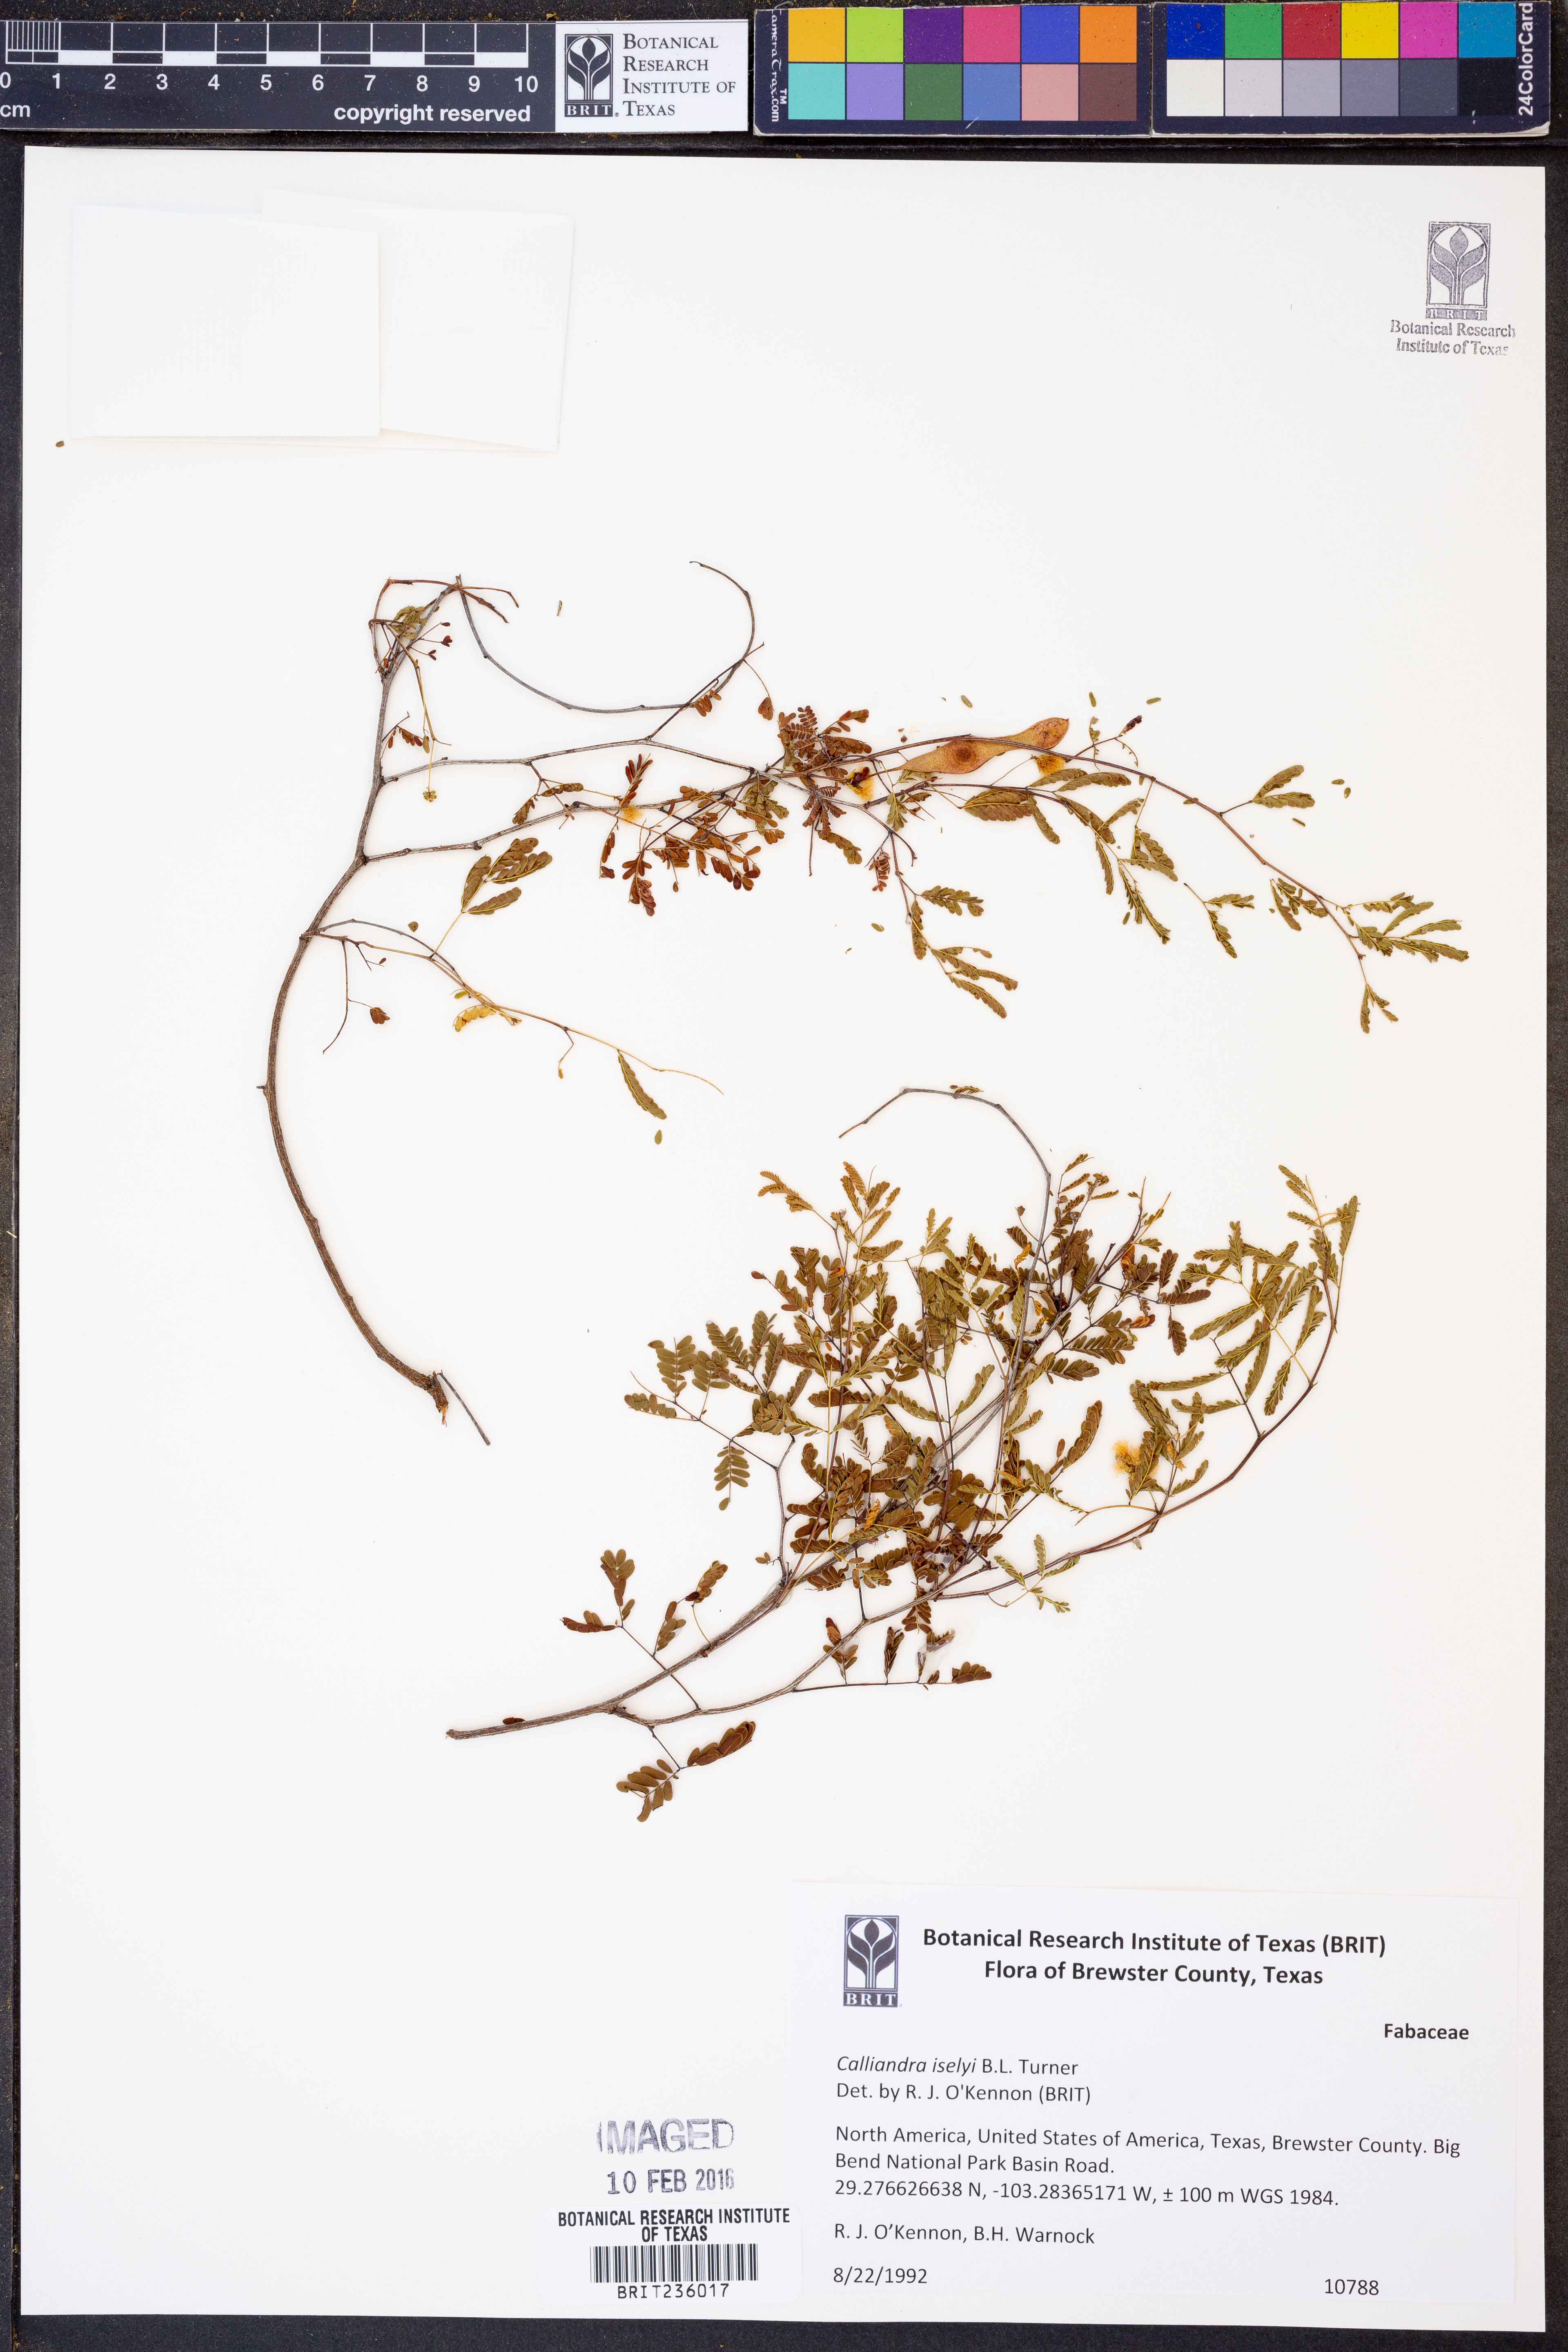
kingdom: Plantae
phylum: Tracheophyta
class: Magnoliopsida
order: Fabales
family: Fabaceae
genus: Calliandra
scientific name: Calliandra iselyi
